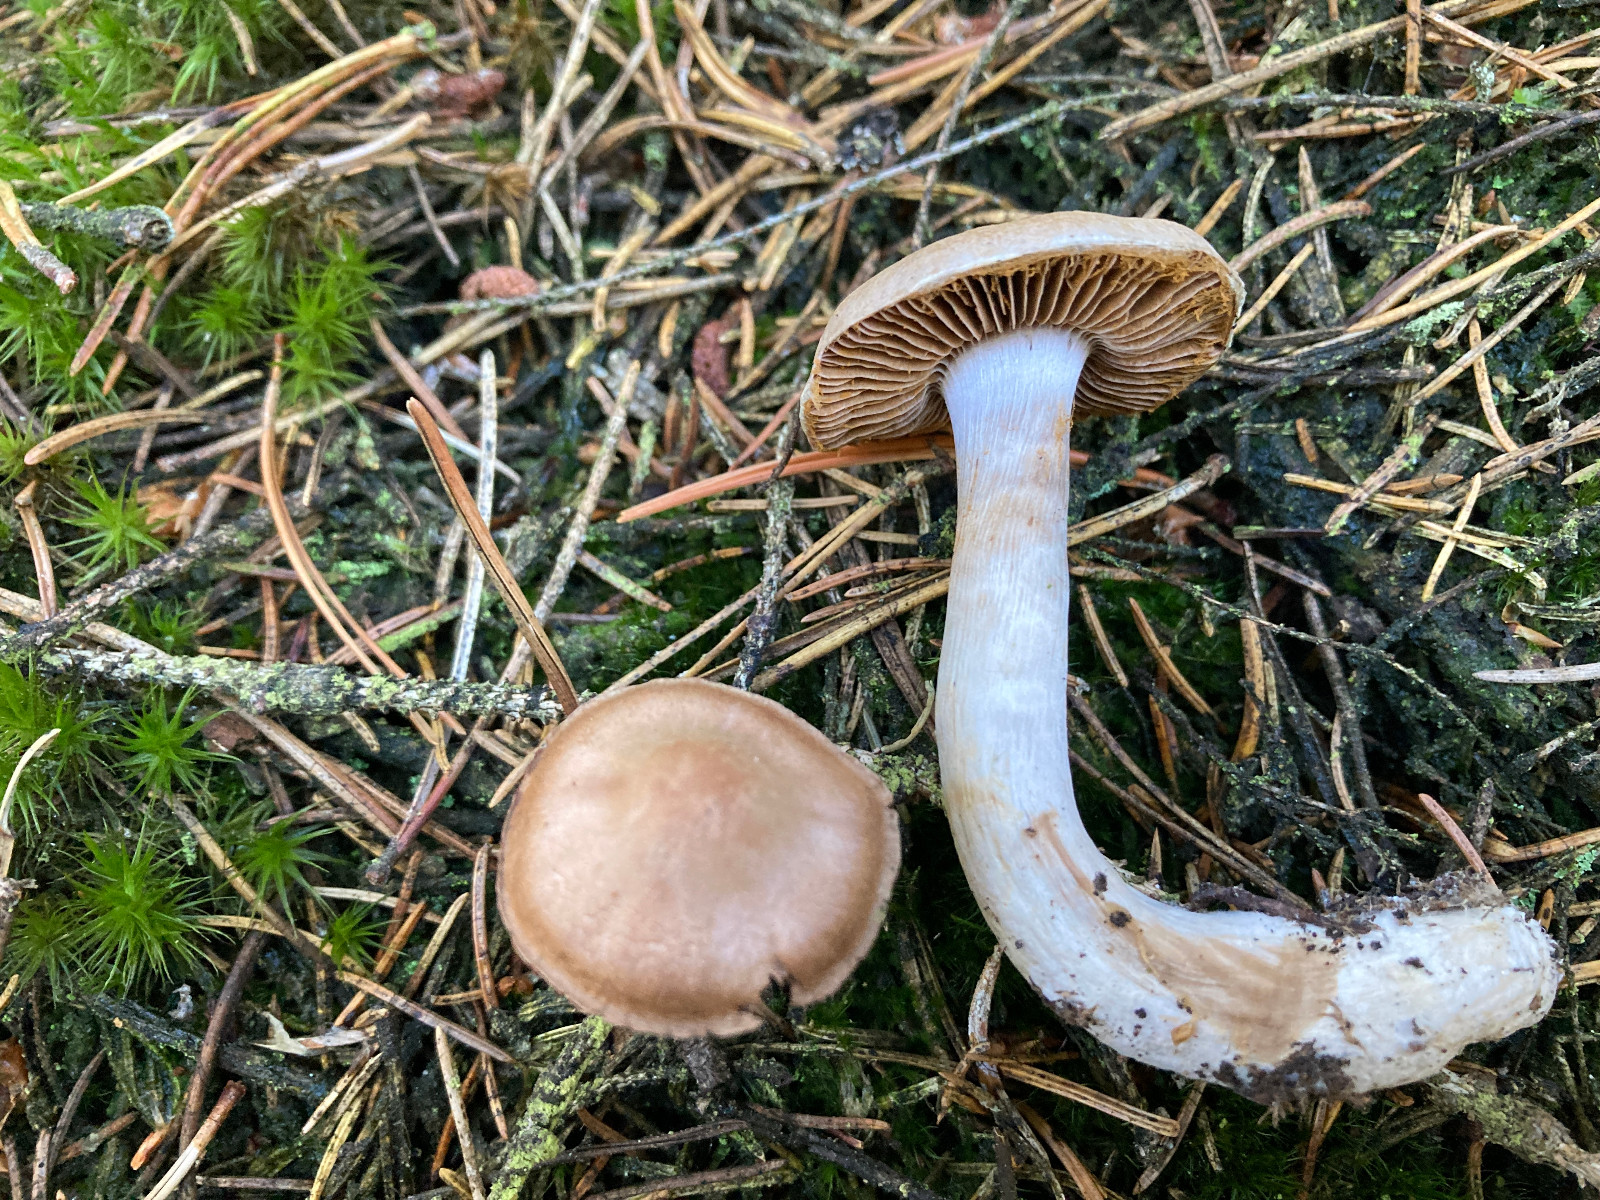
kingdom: Fungi
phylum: Basidiomycota
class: Agaricomycetes
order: Agaricales
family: Cortinariaceae
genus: Cortinarius
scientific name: Cortinarius
